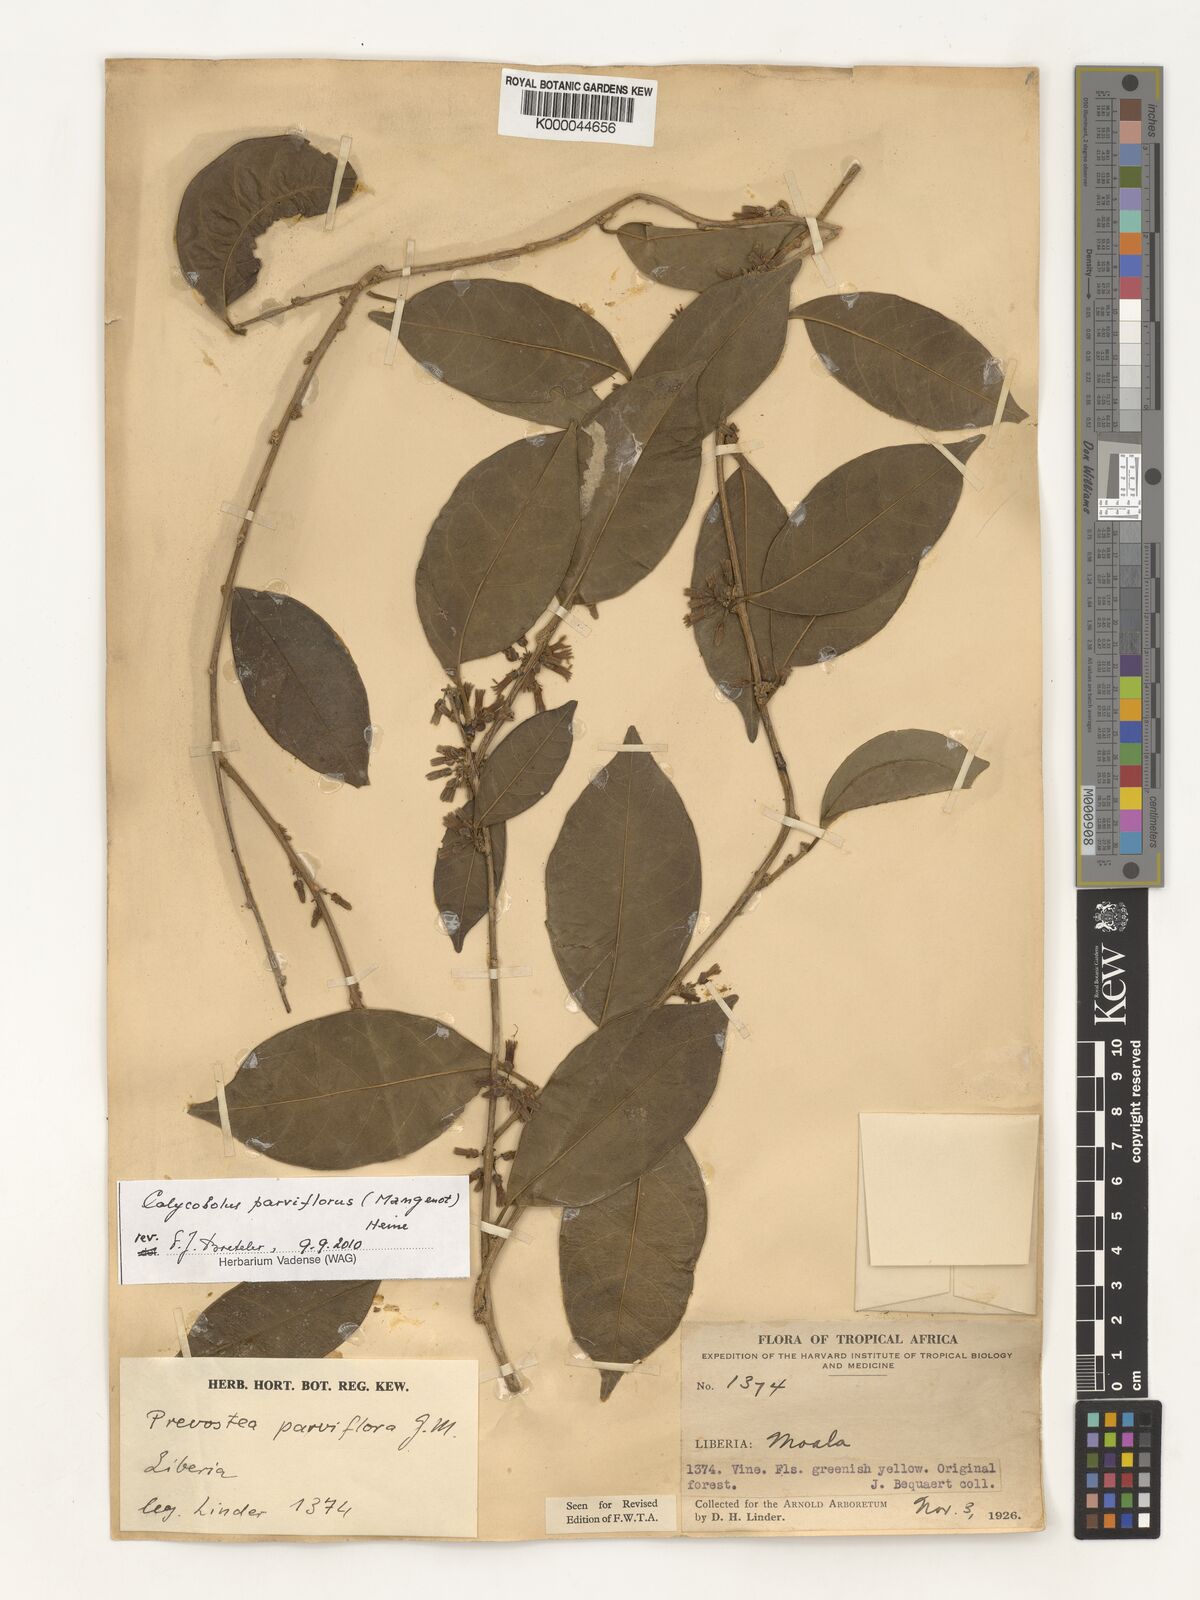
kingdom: Plantae
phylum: Tracheophyta
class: Magnoliopsida
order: Solanales
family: Convolvulaceae
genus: Calycobolus
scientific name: Calycobolus parviflorus
